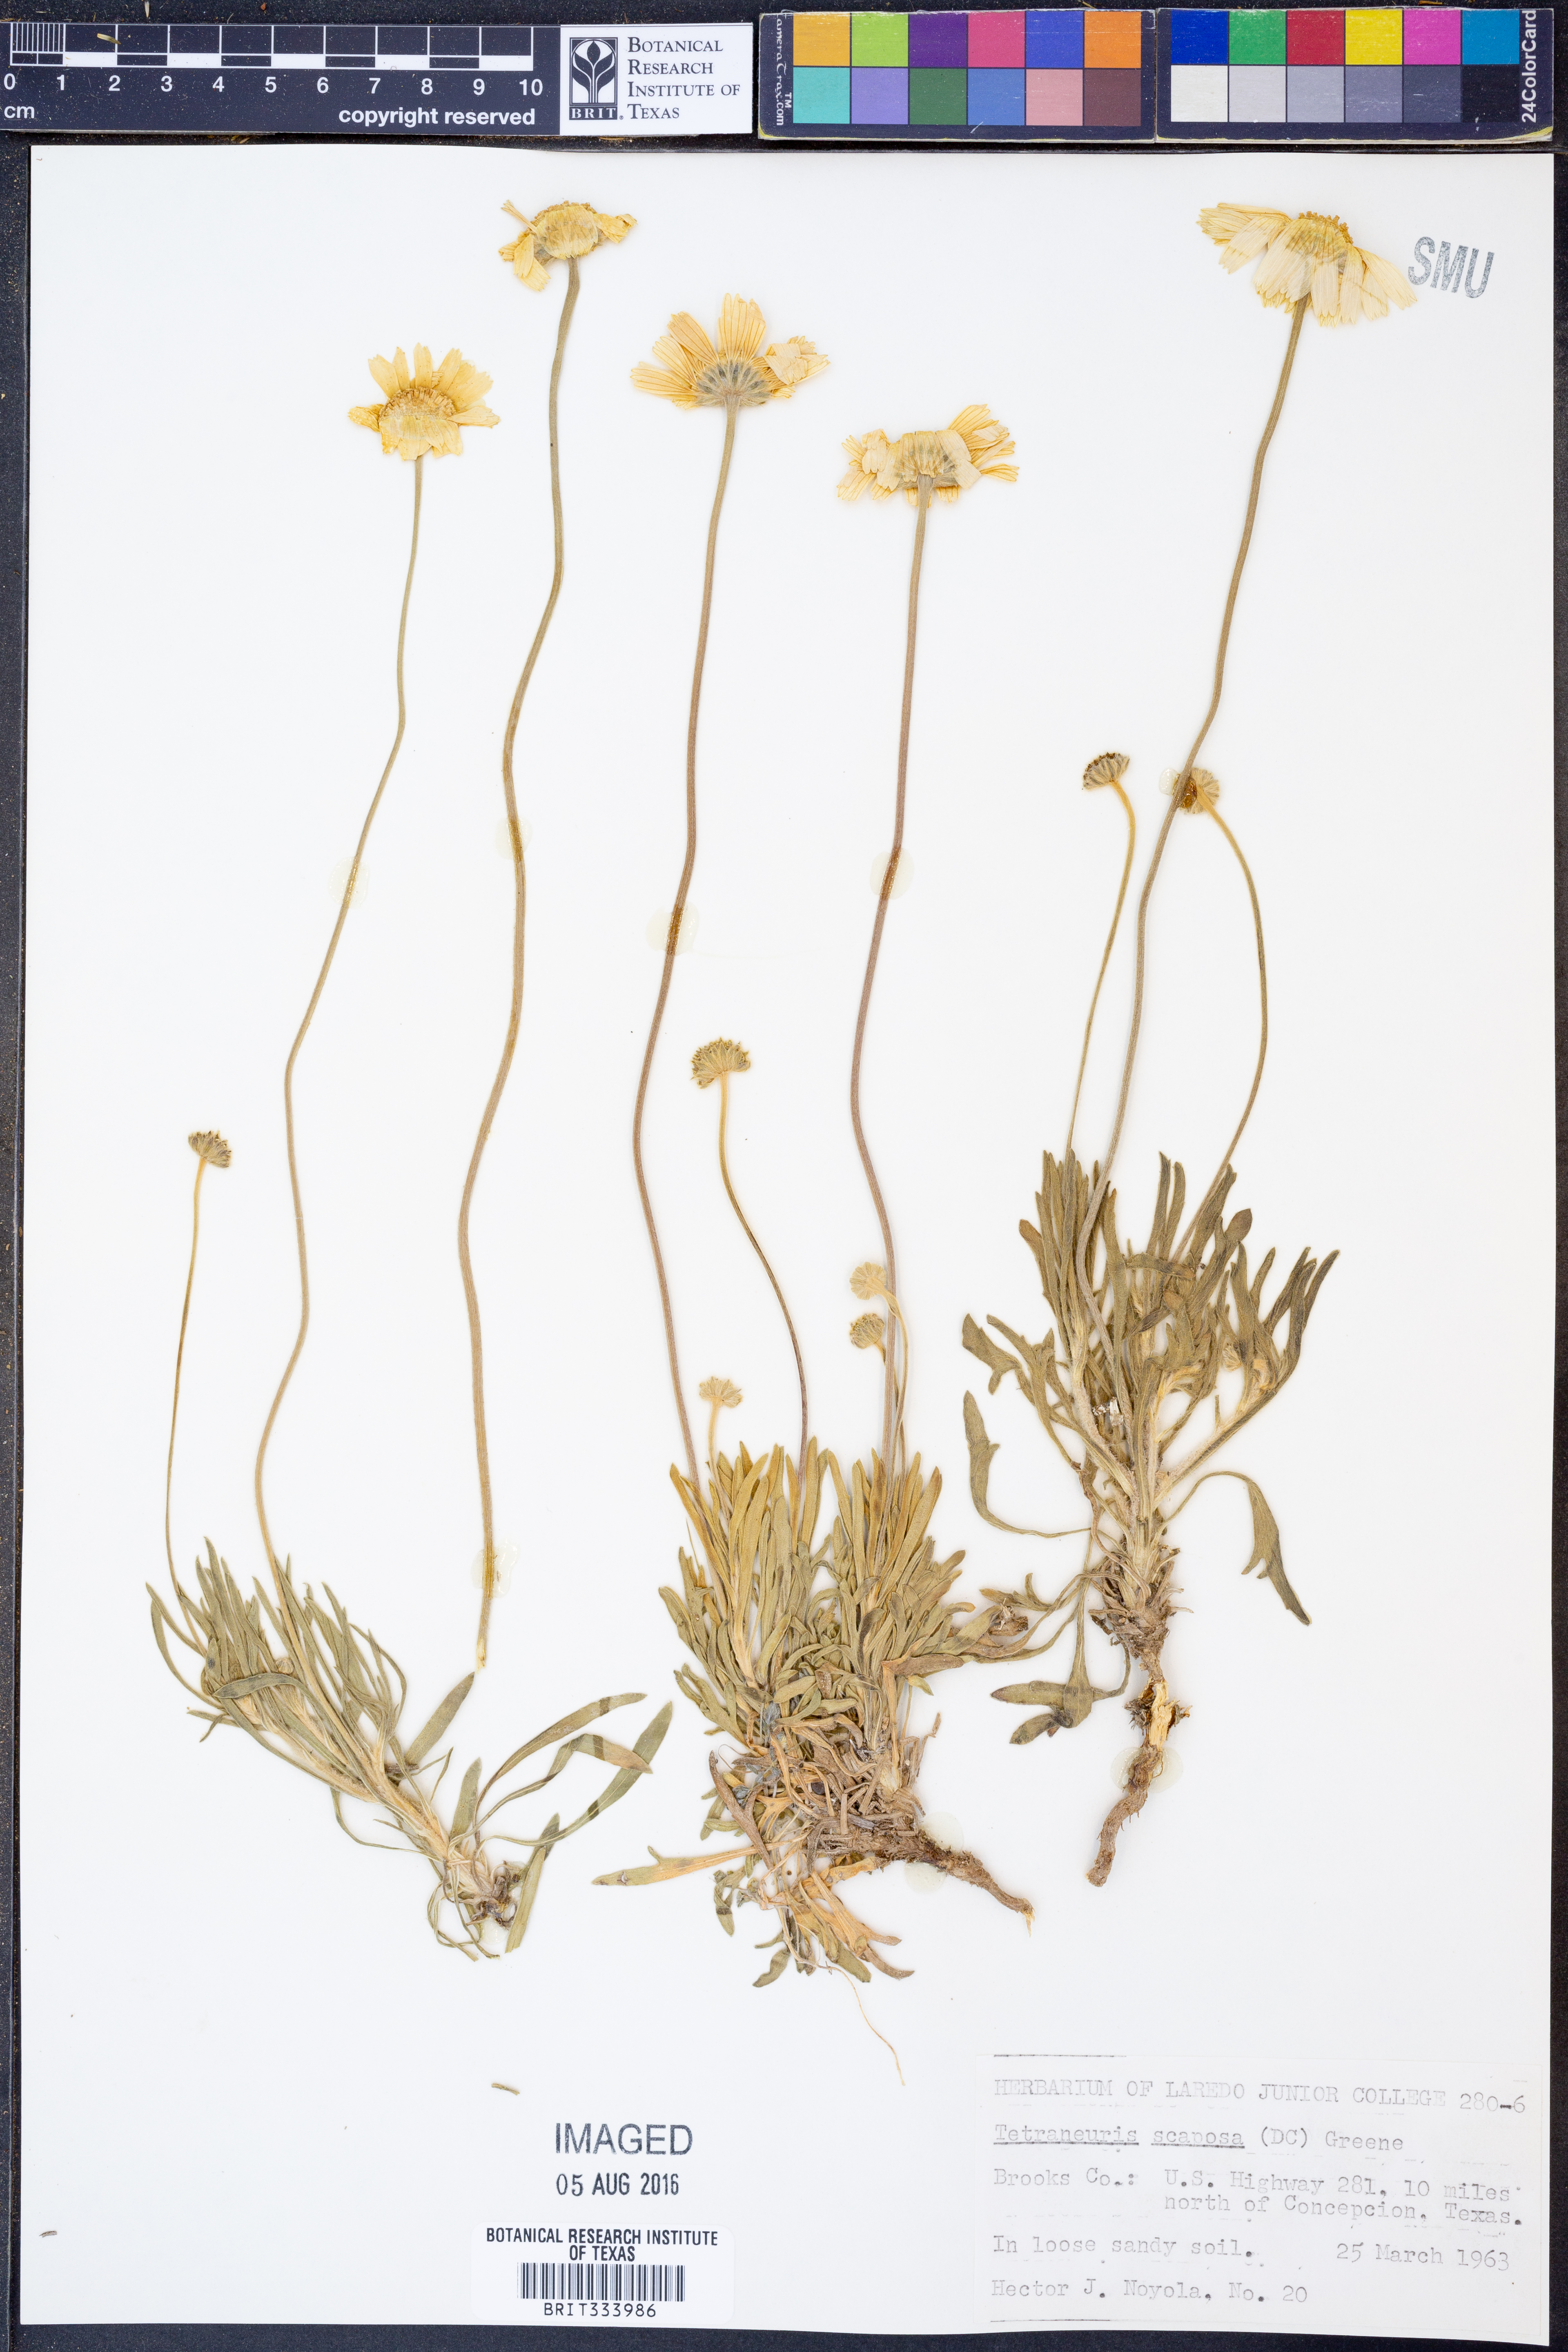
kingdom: Plantae
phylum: Tracheophyta
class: Magnoliopsida
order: Asterales
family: Asteraceae
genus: Tetraneuris
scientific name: Tetraneuris scaposa
